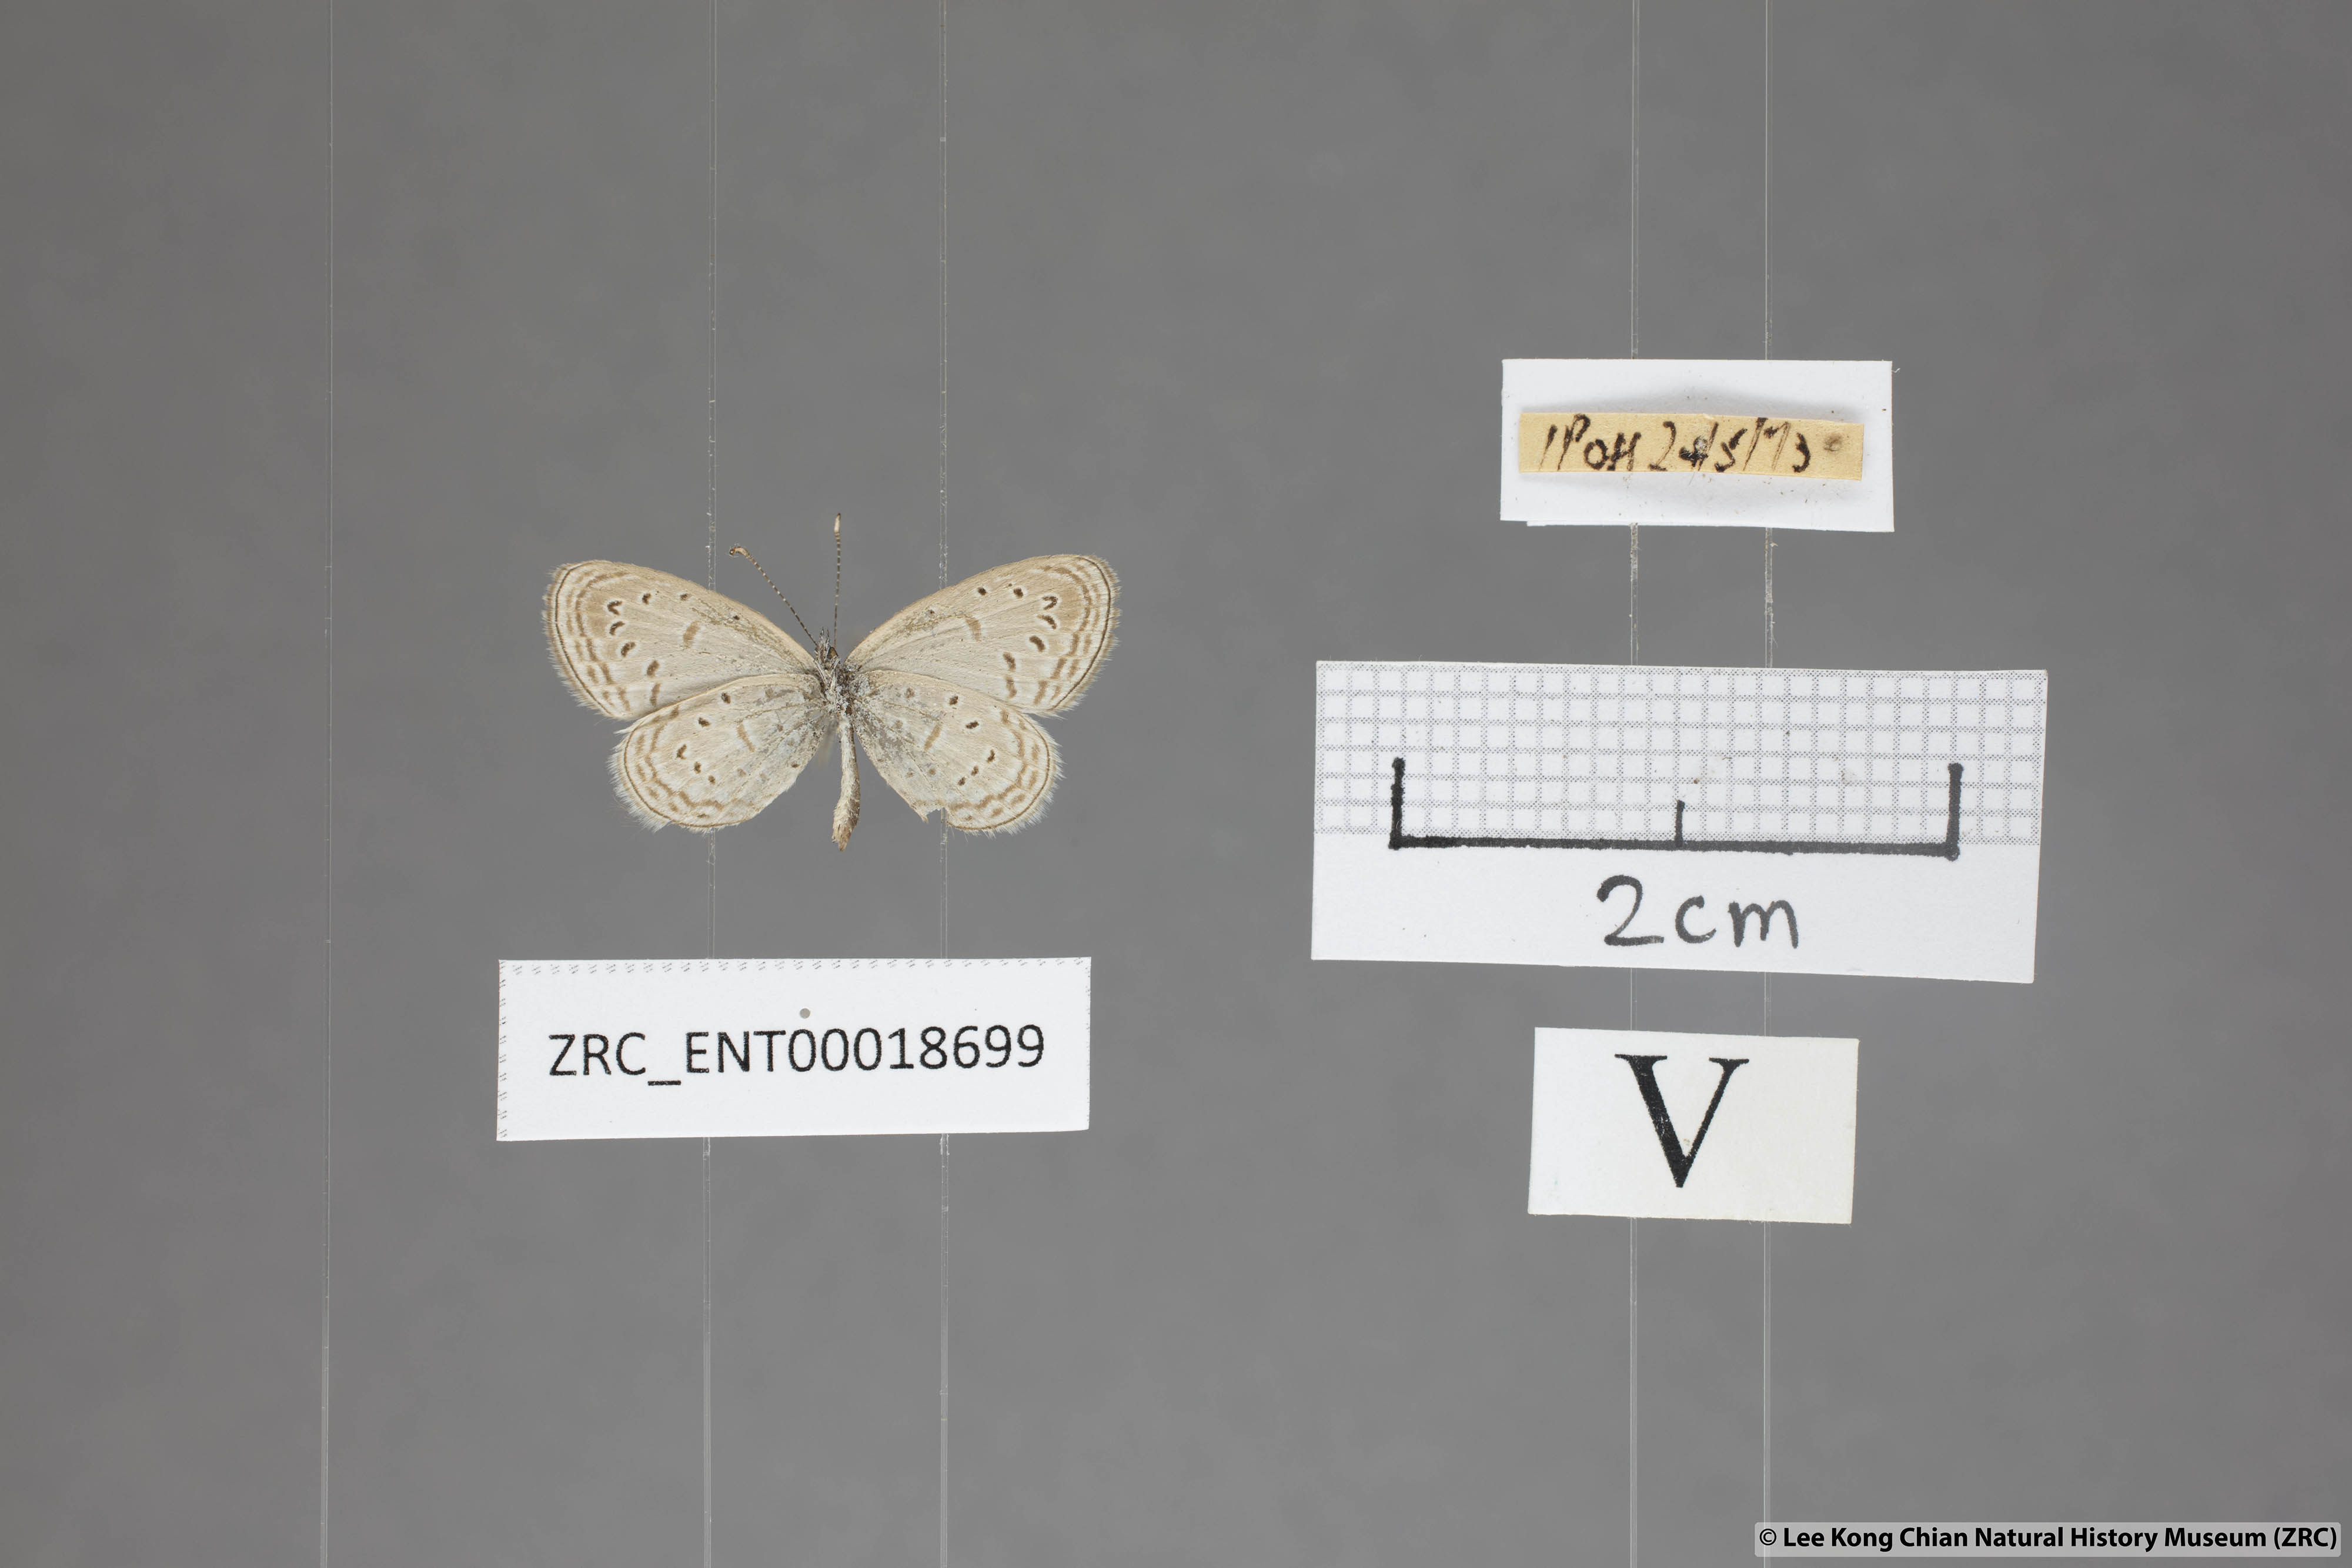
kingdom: Animalia
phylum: Arthropoda
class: Insecta
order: Lepidoptera
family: Lycaenidae
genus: Zizula
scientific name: Zizula hylax
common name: Gaika blue
